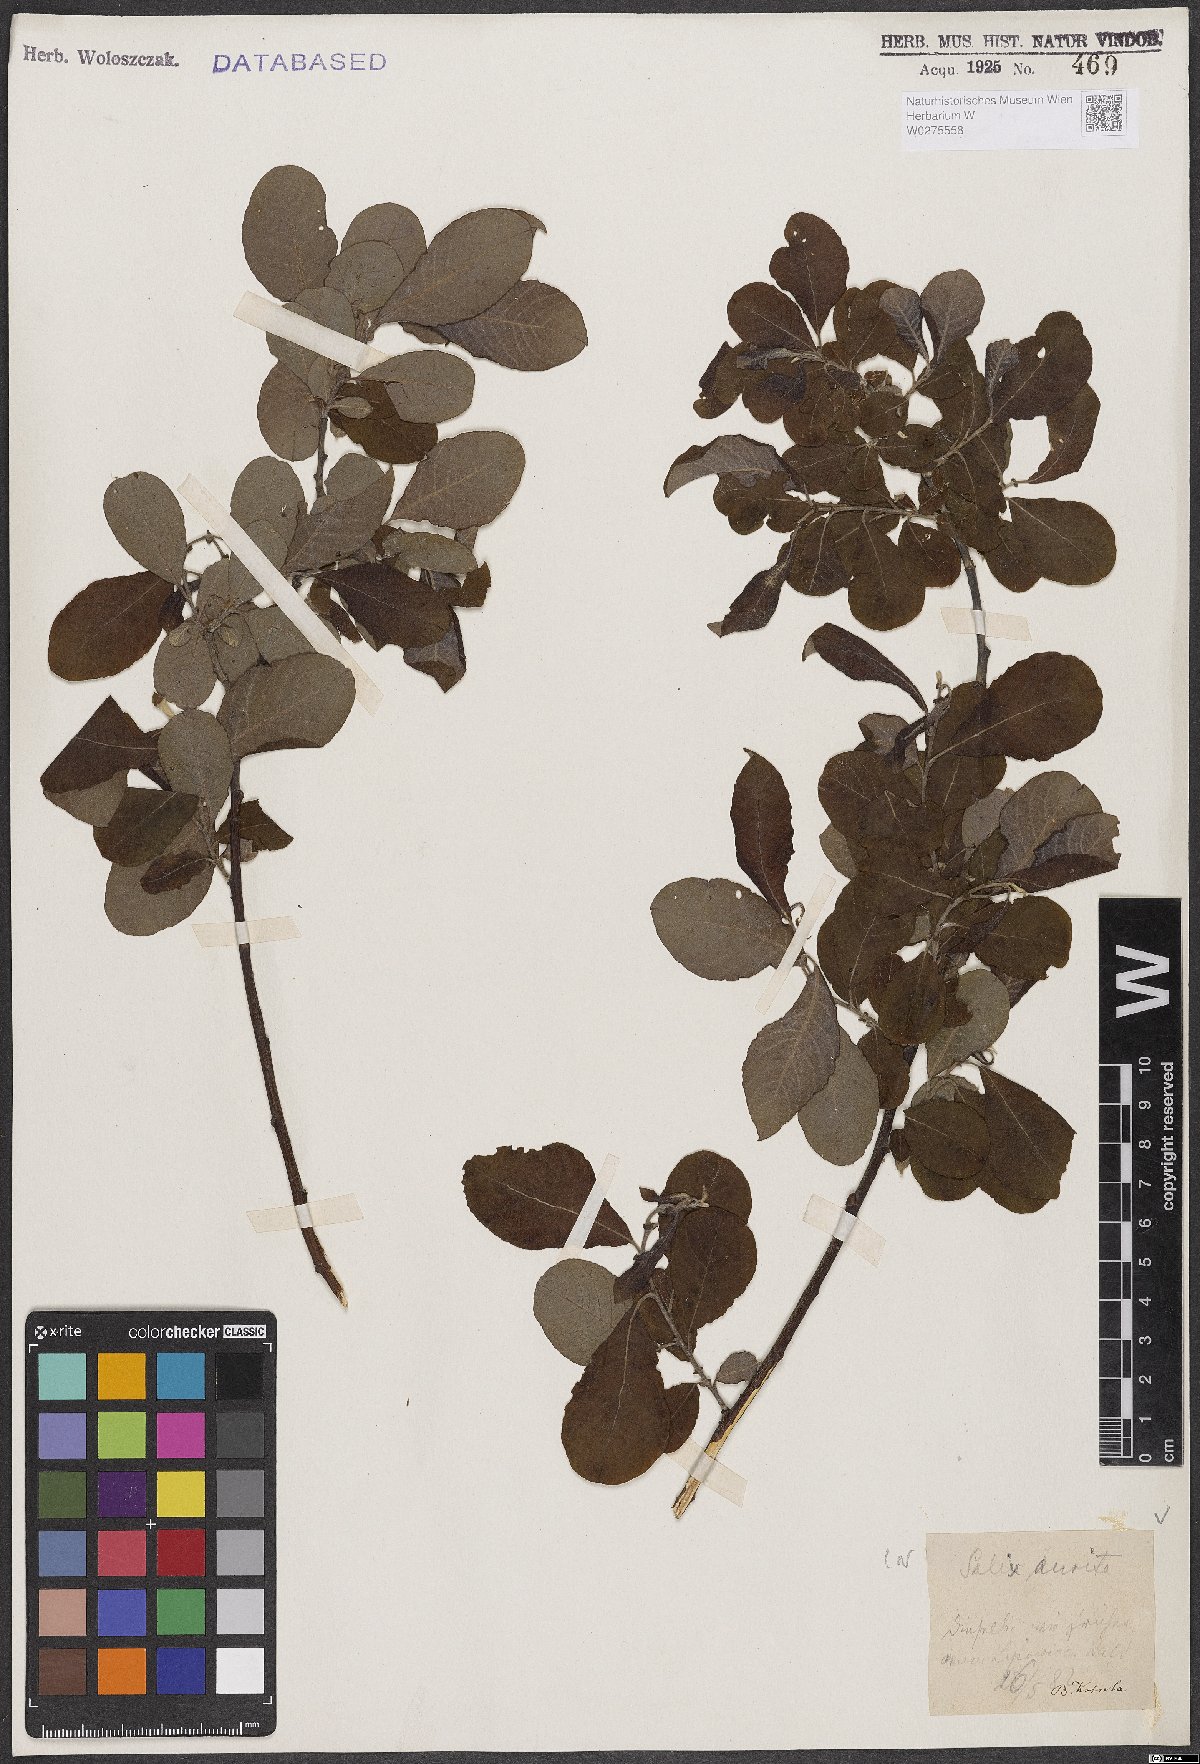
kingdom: Plantae
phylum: Tracheophyta
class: Magnoliopsida
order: Malpighiales
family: Salicaceae
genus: Salix
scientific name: Salix aurita
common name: Eared willow
